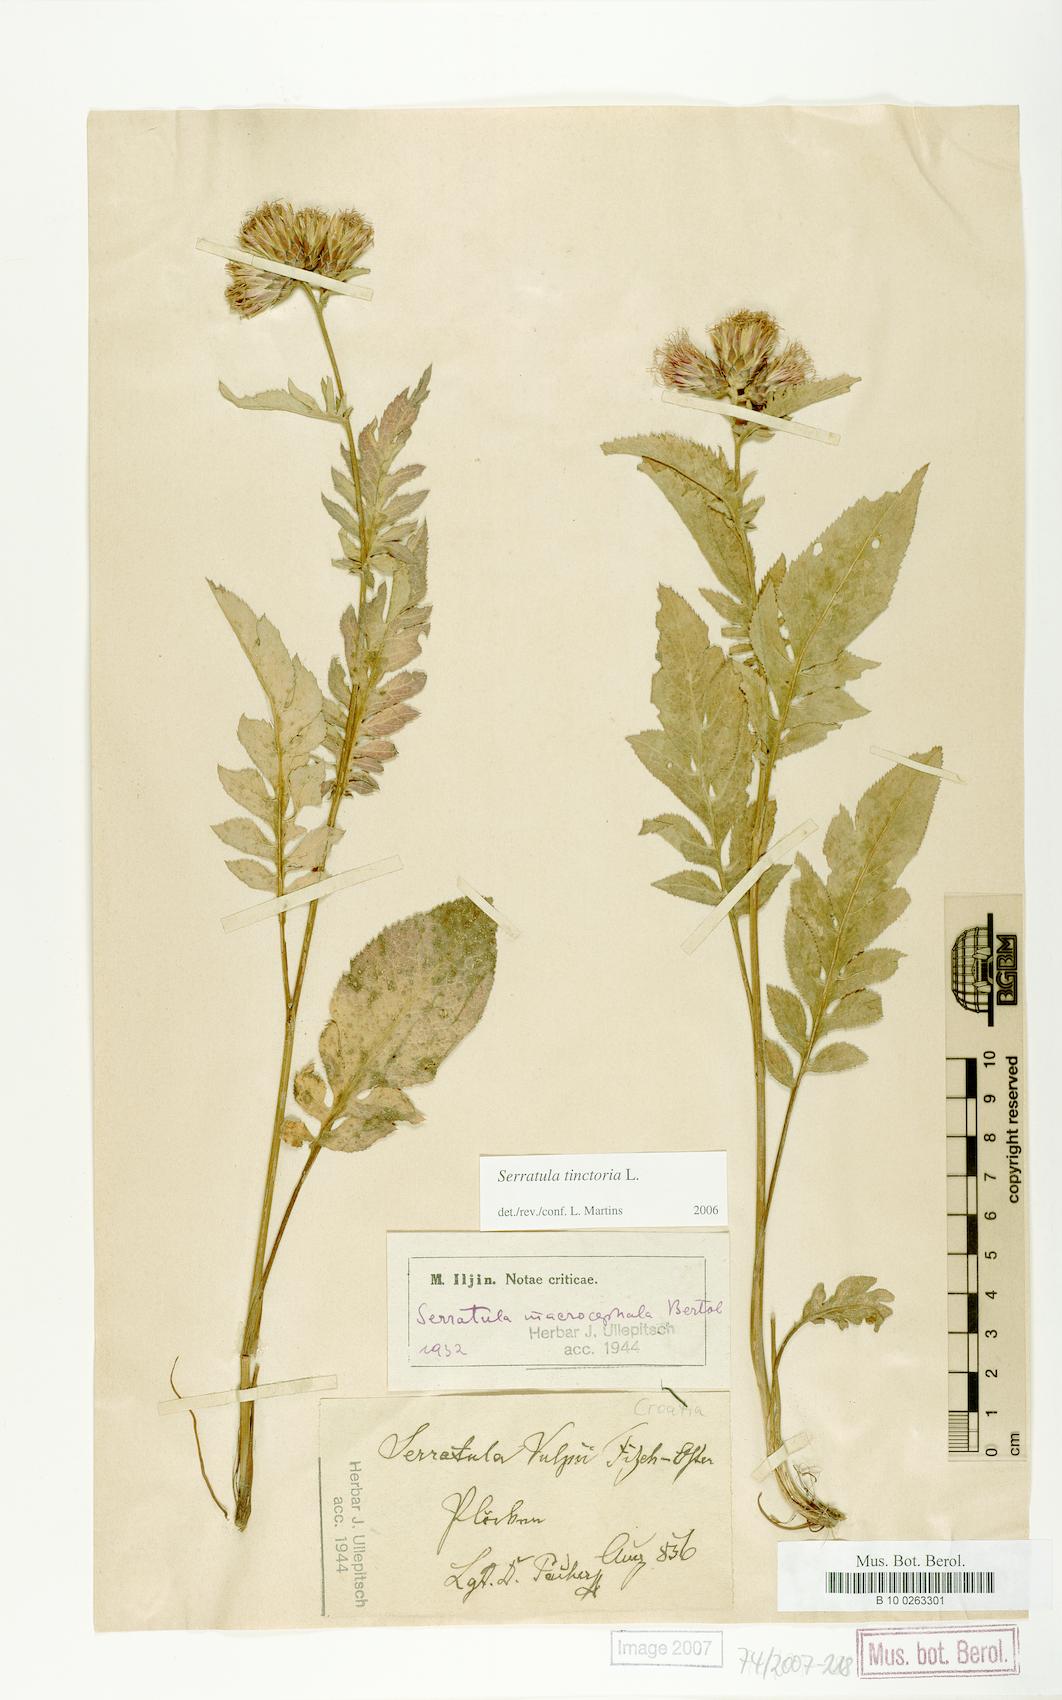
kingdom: Plantae
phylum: Tracheophyta
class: Magnoliopsida
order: Asterales
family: Asteraceae
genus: Serratula
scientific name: Serratula tinctoria
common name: Saw-wort
